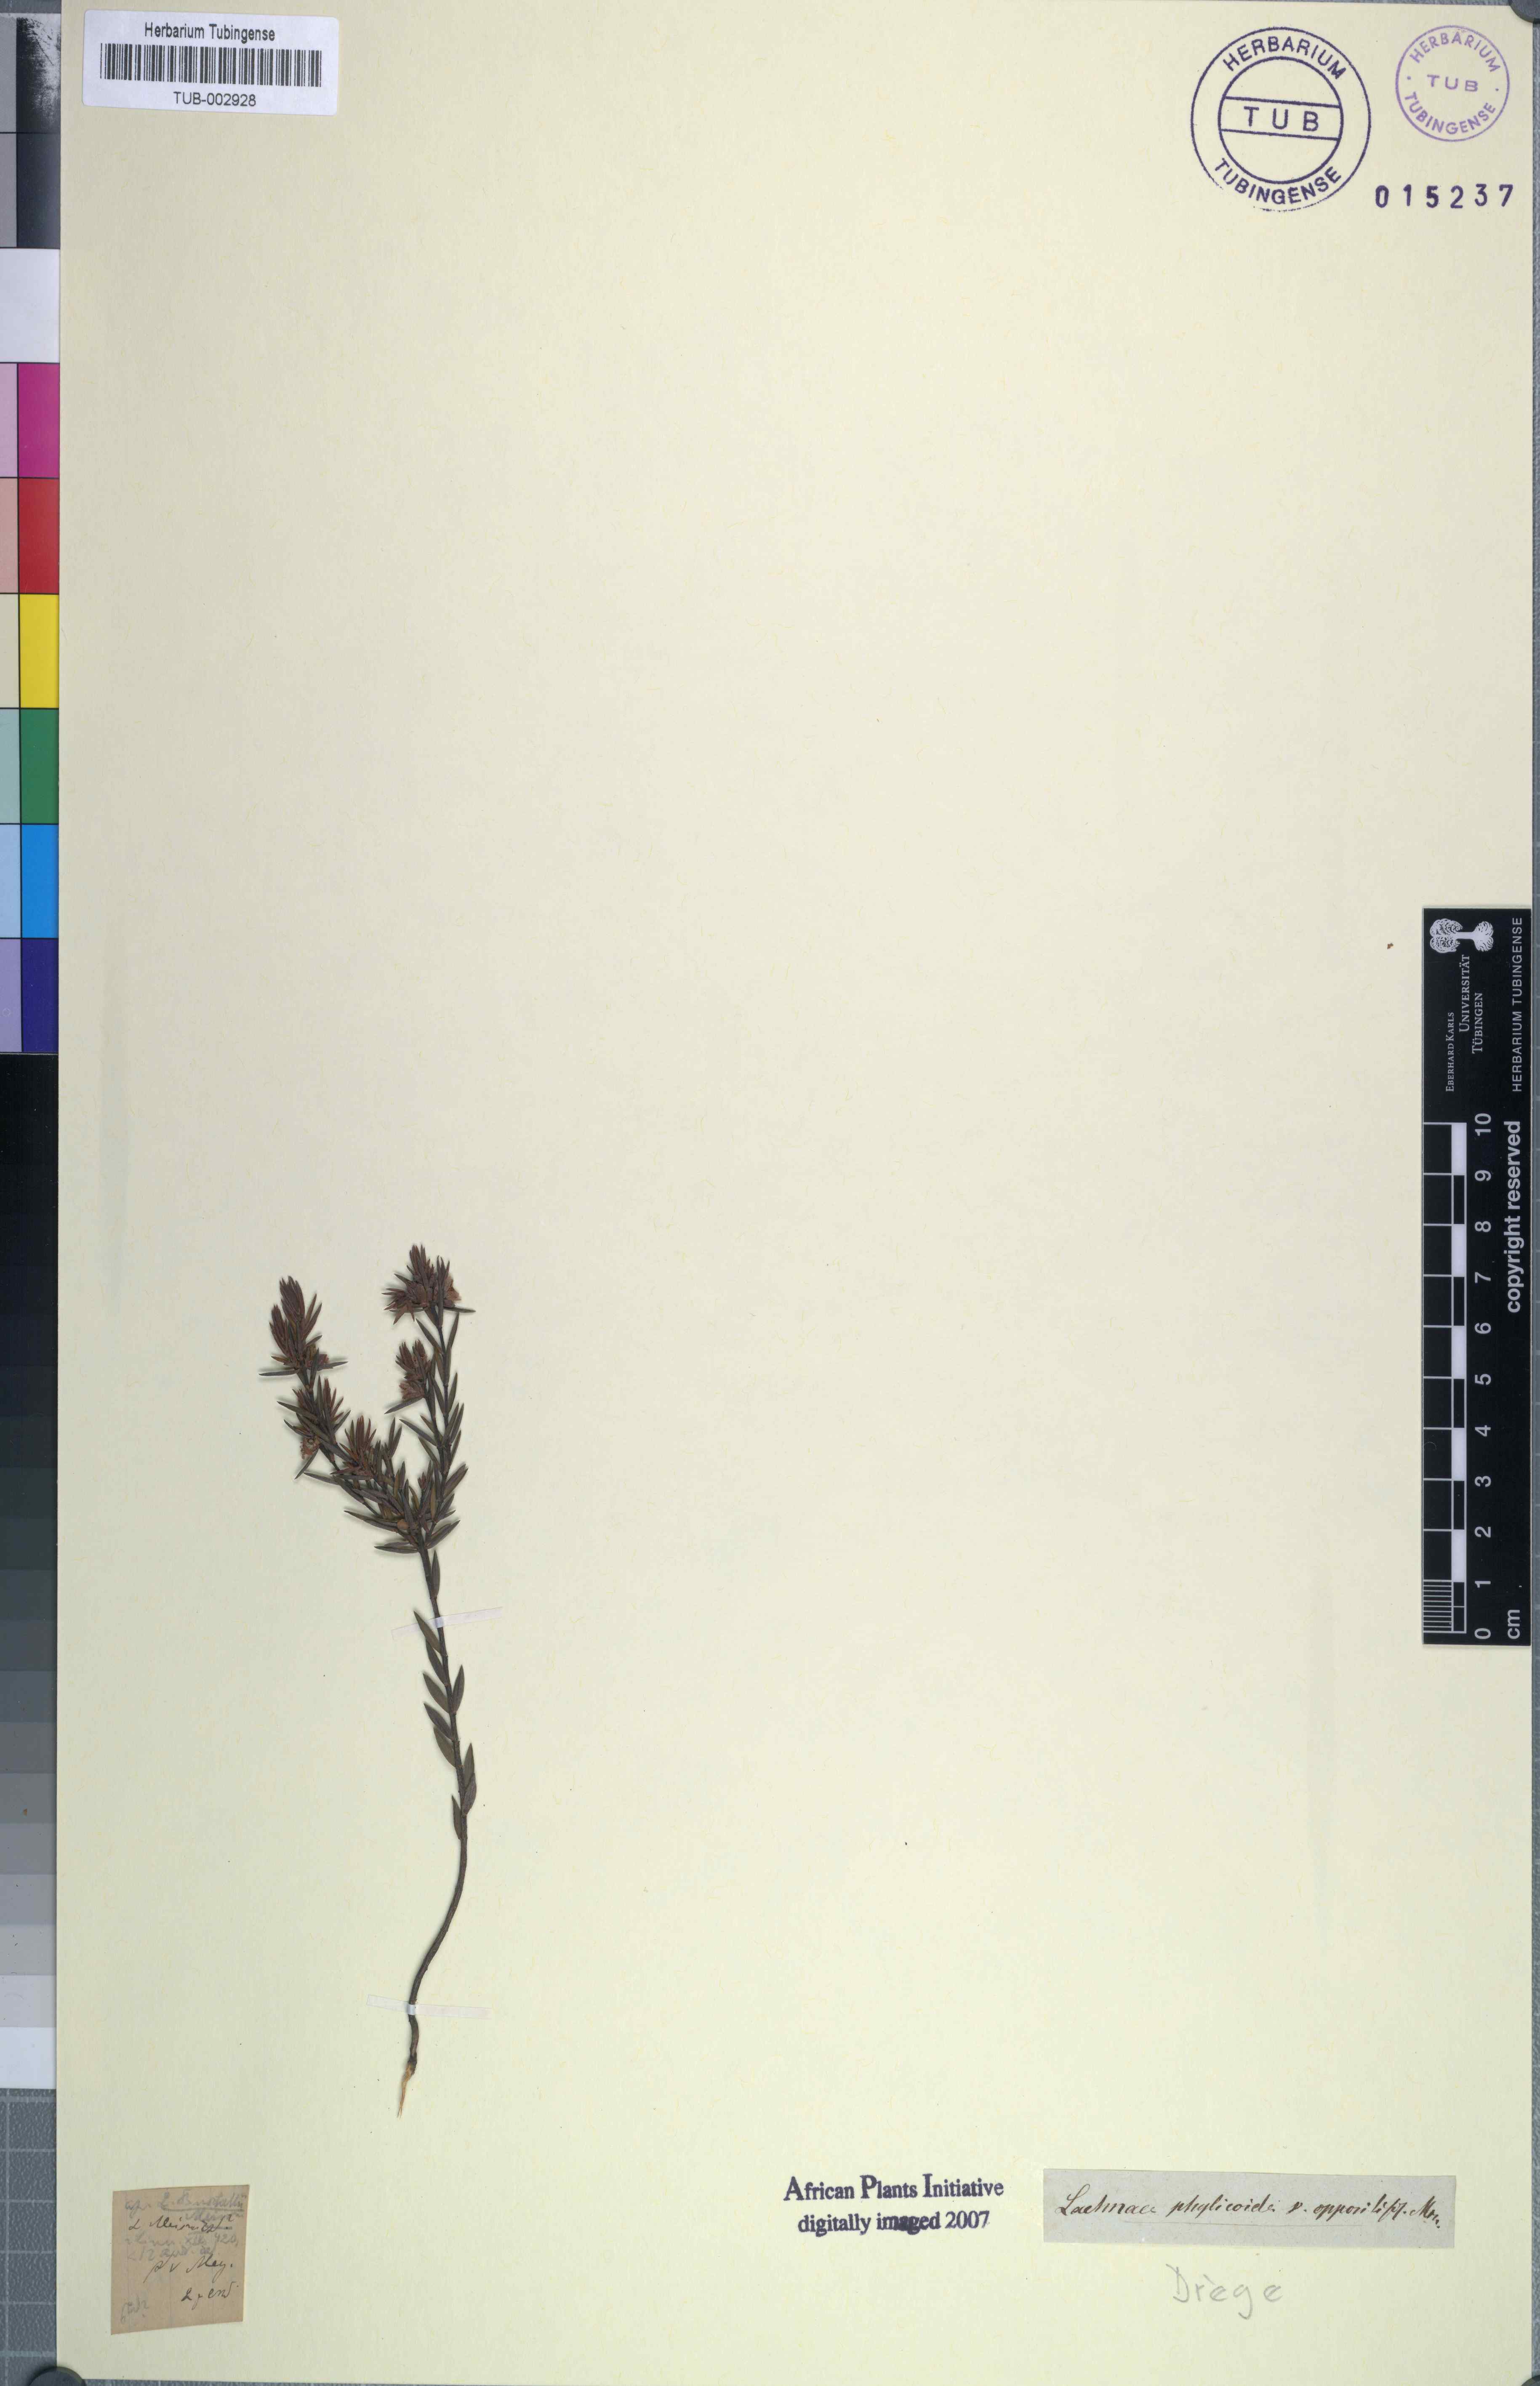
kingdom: Plantae
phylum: Tracheophyta
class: Magnoliopsida
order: Malvales
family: Thymelaeaceae
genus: Passerina
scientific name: Passerina ericoides
